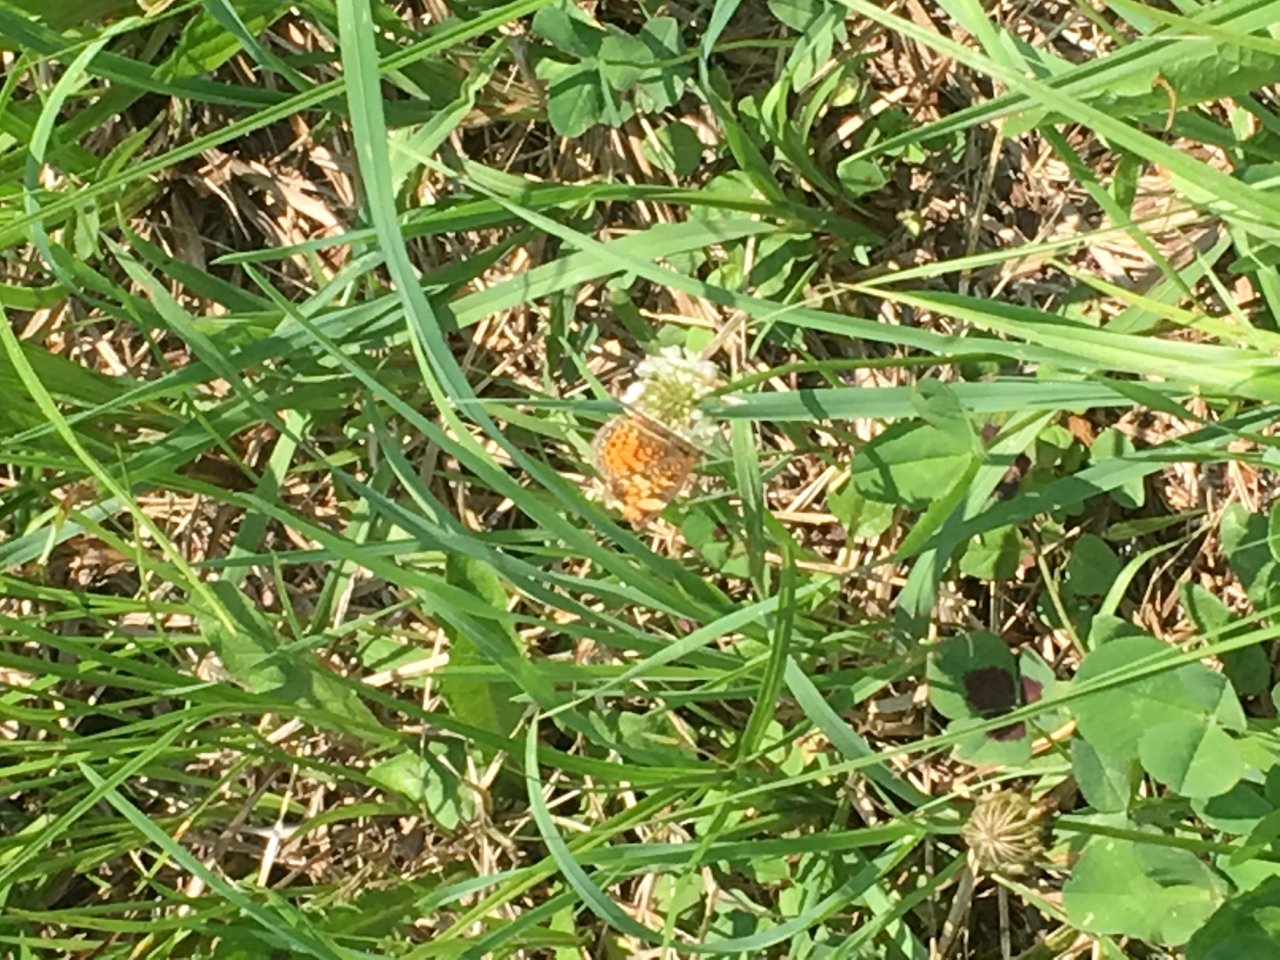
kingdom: Animalia
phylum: Arthropoda
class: Insecta
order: Lepidoptera
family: Nymphalidae
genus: Phyciodes
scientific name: Phyciodes
